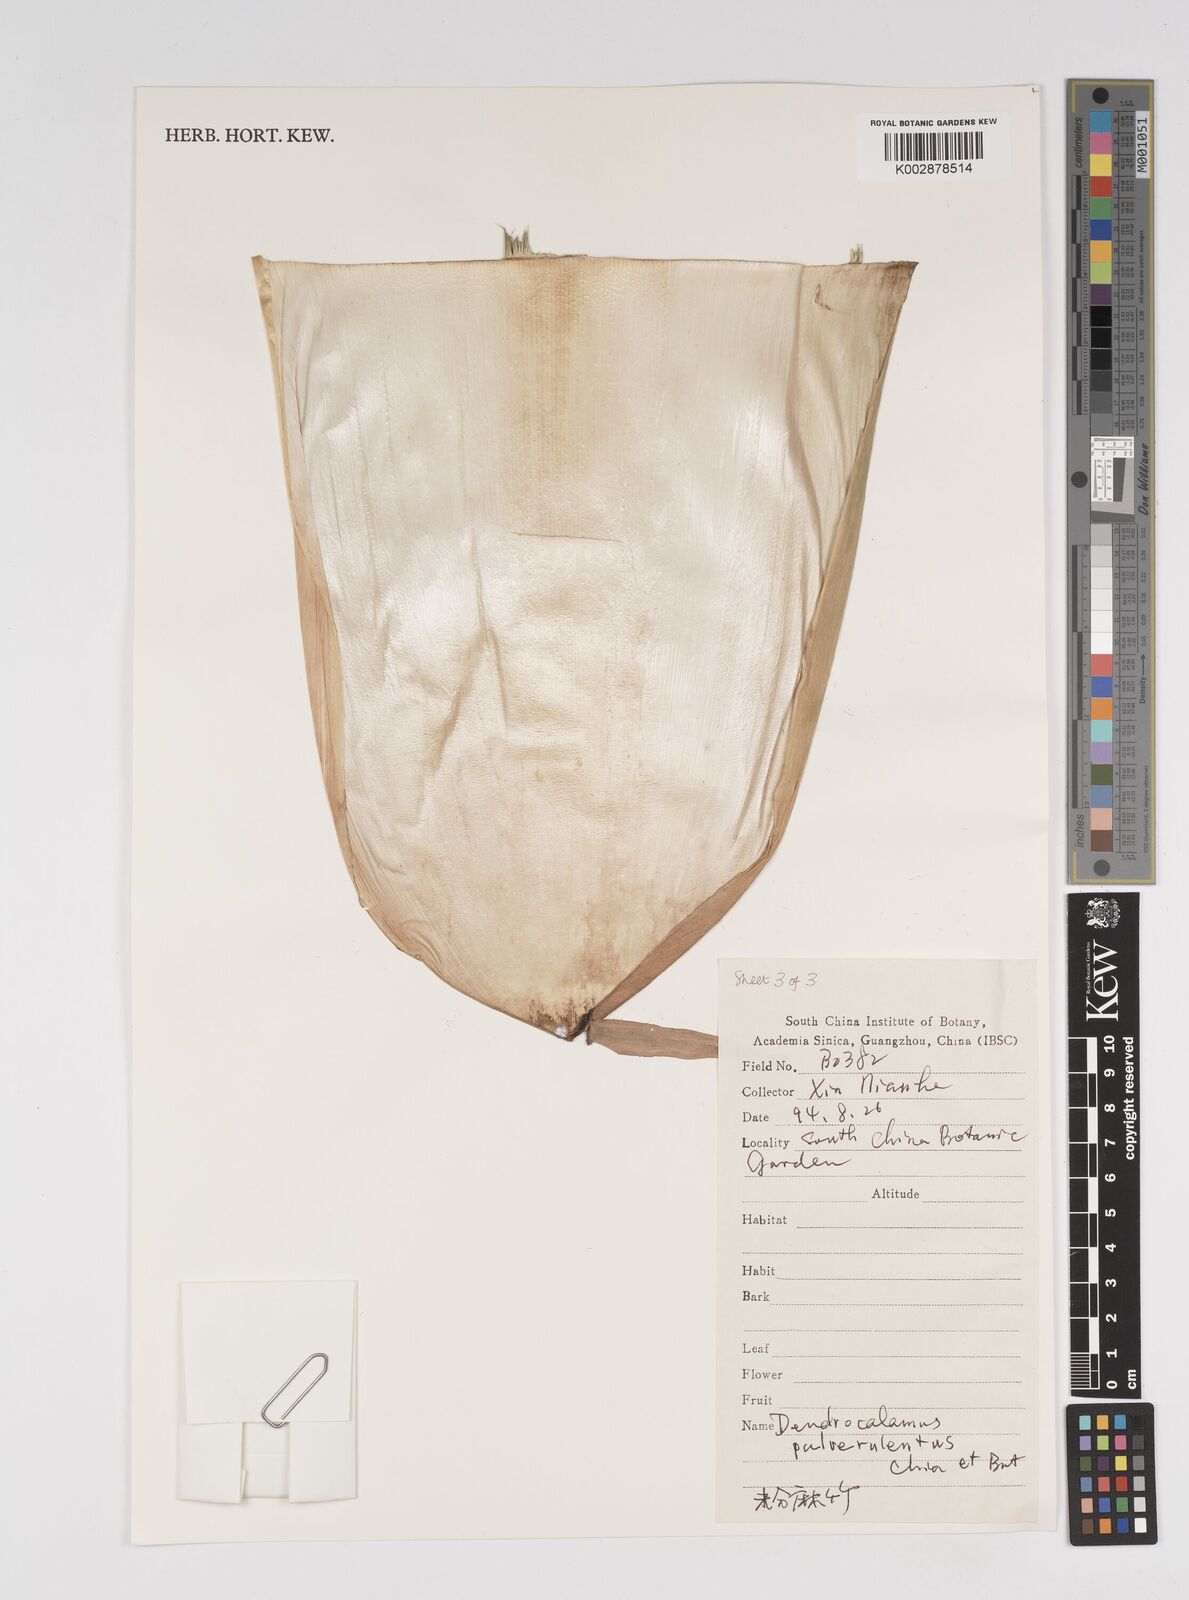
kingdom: Plantae
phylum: Tracheophyta
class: Liliopsida
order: Poales
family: Poaceae
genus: Dendrocalamus
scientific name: Dendrocalamus pulverulentus
